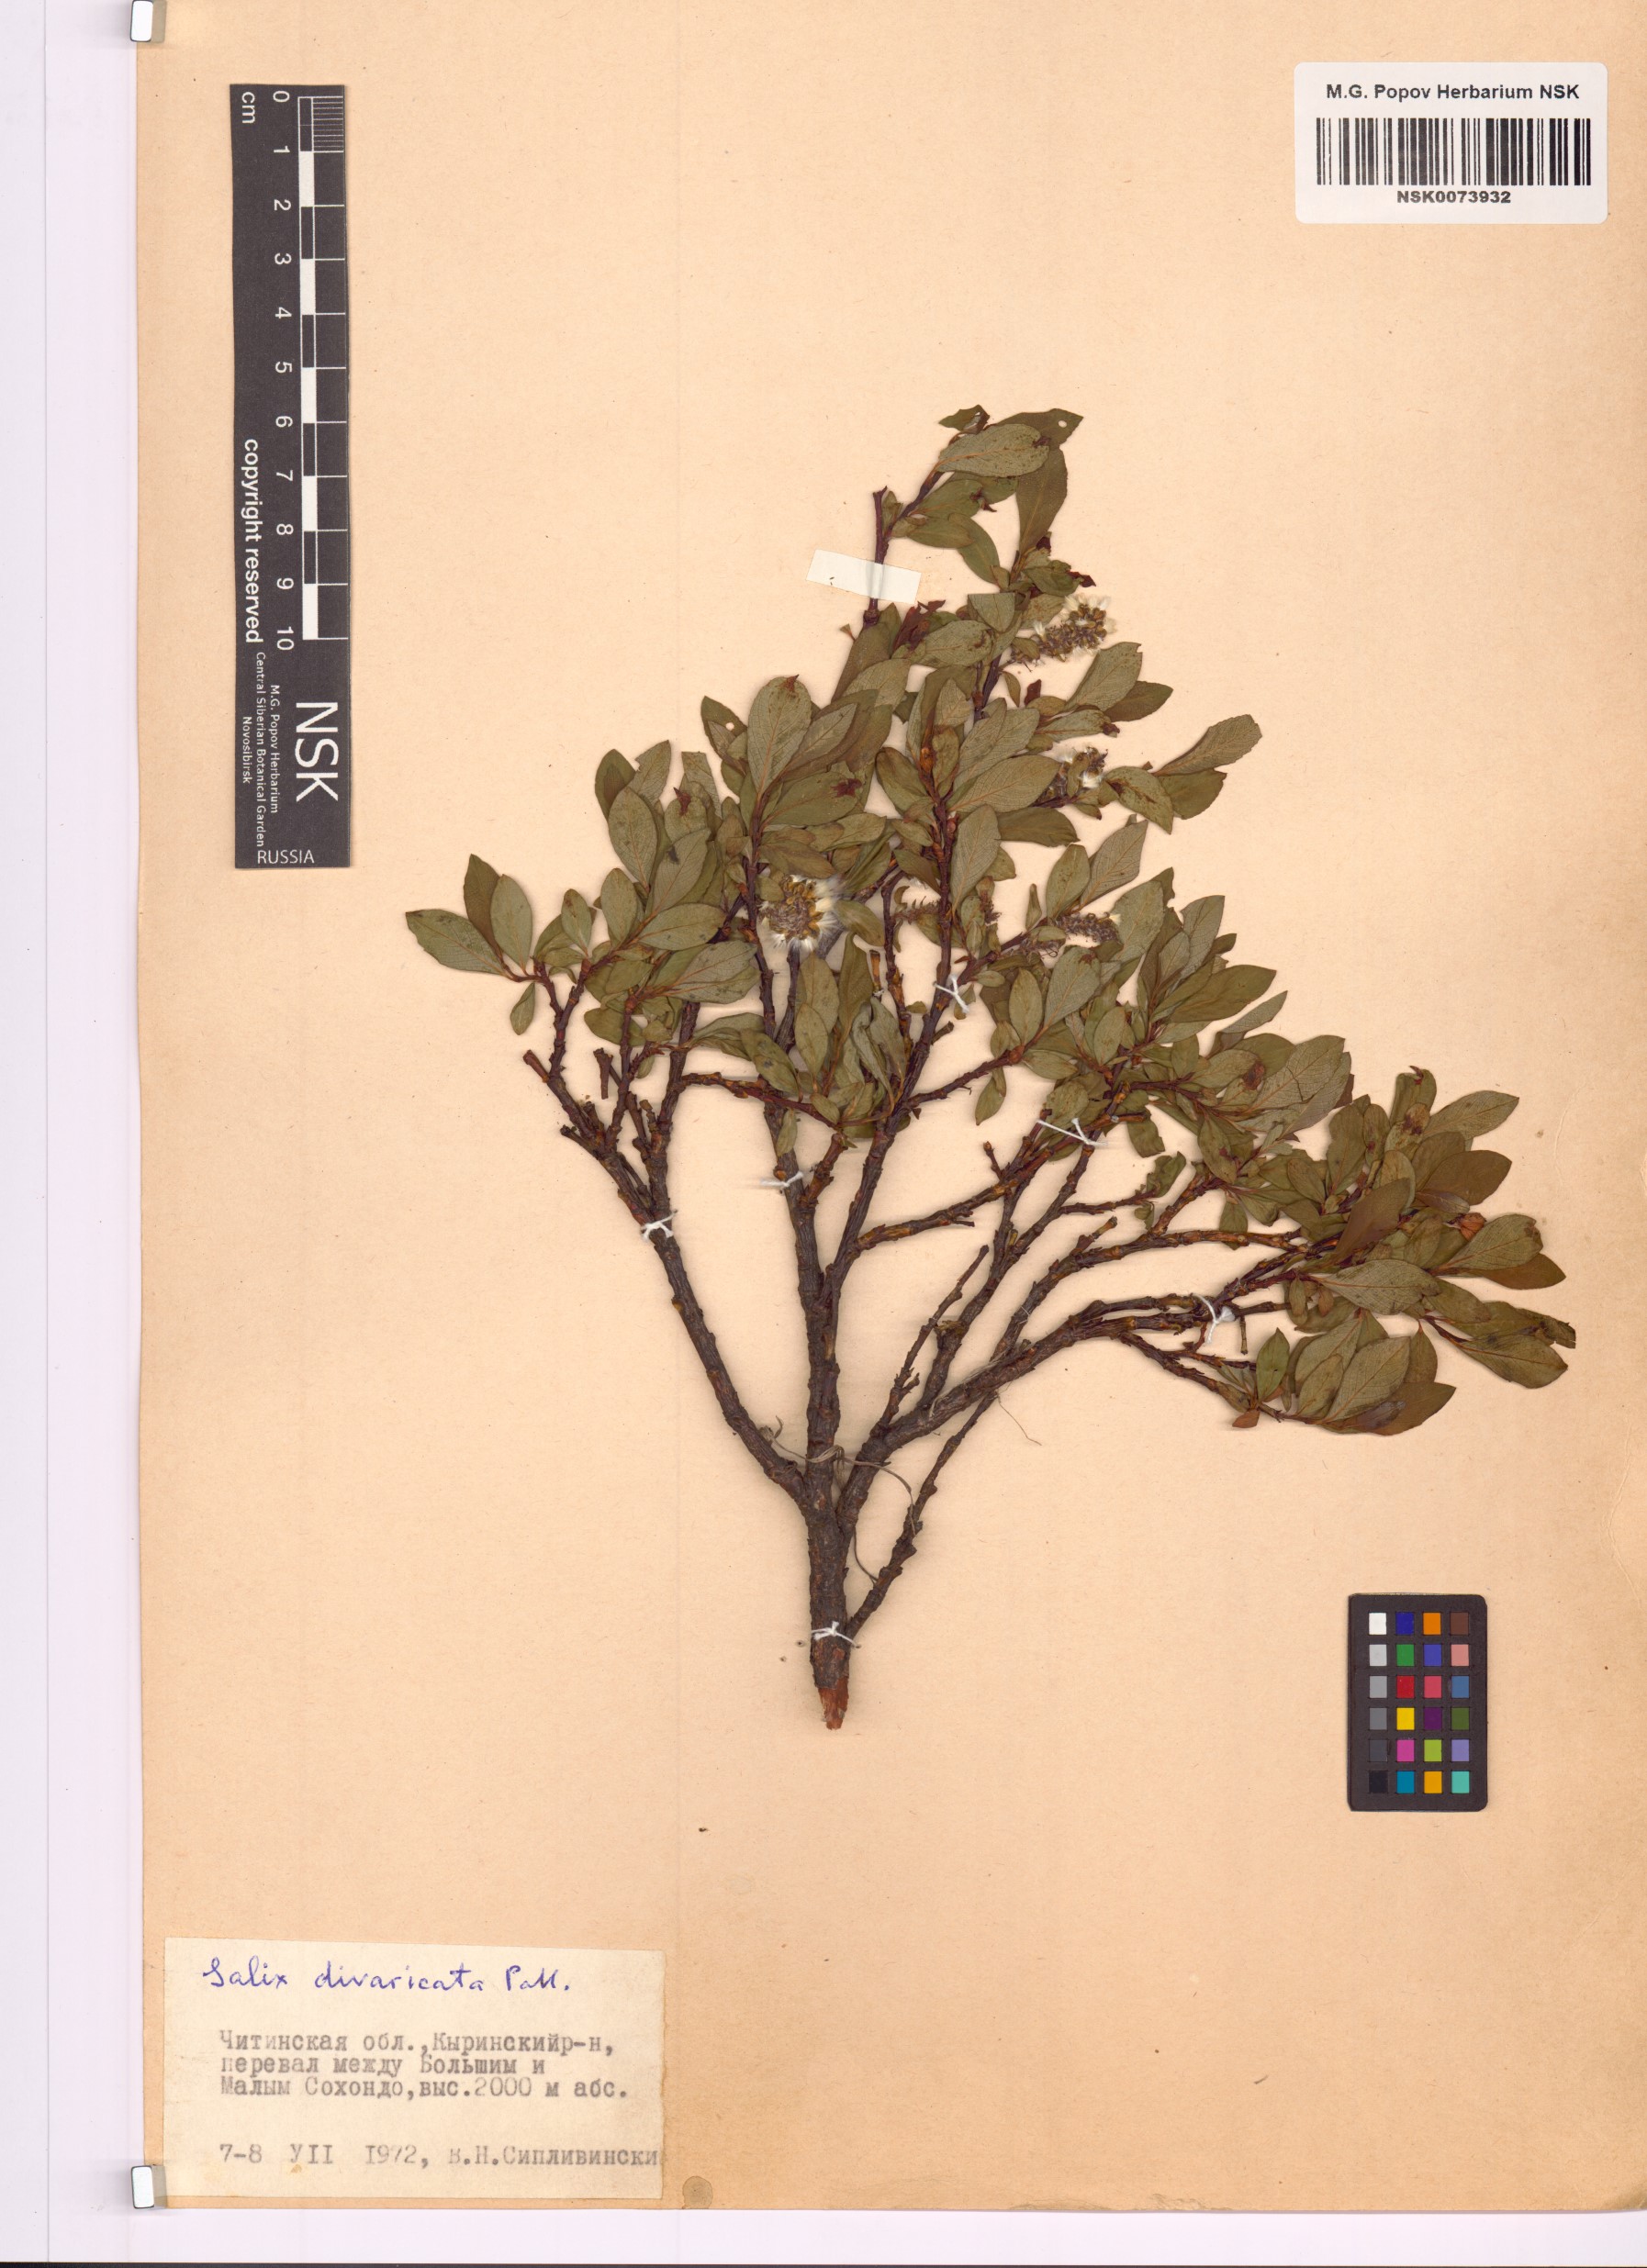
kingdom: Plantae
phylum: Tracheophyta
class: Magnoliopsida
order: Malpighiales
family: Salicaceae
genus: Salix
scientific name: Salix divaricata
